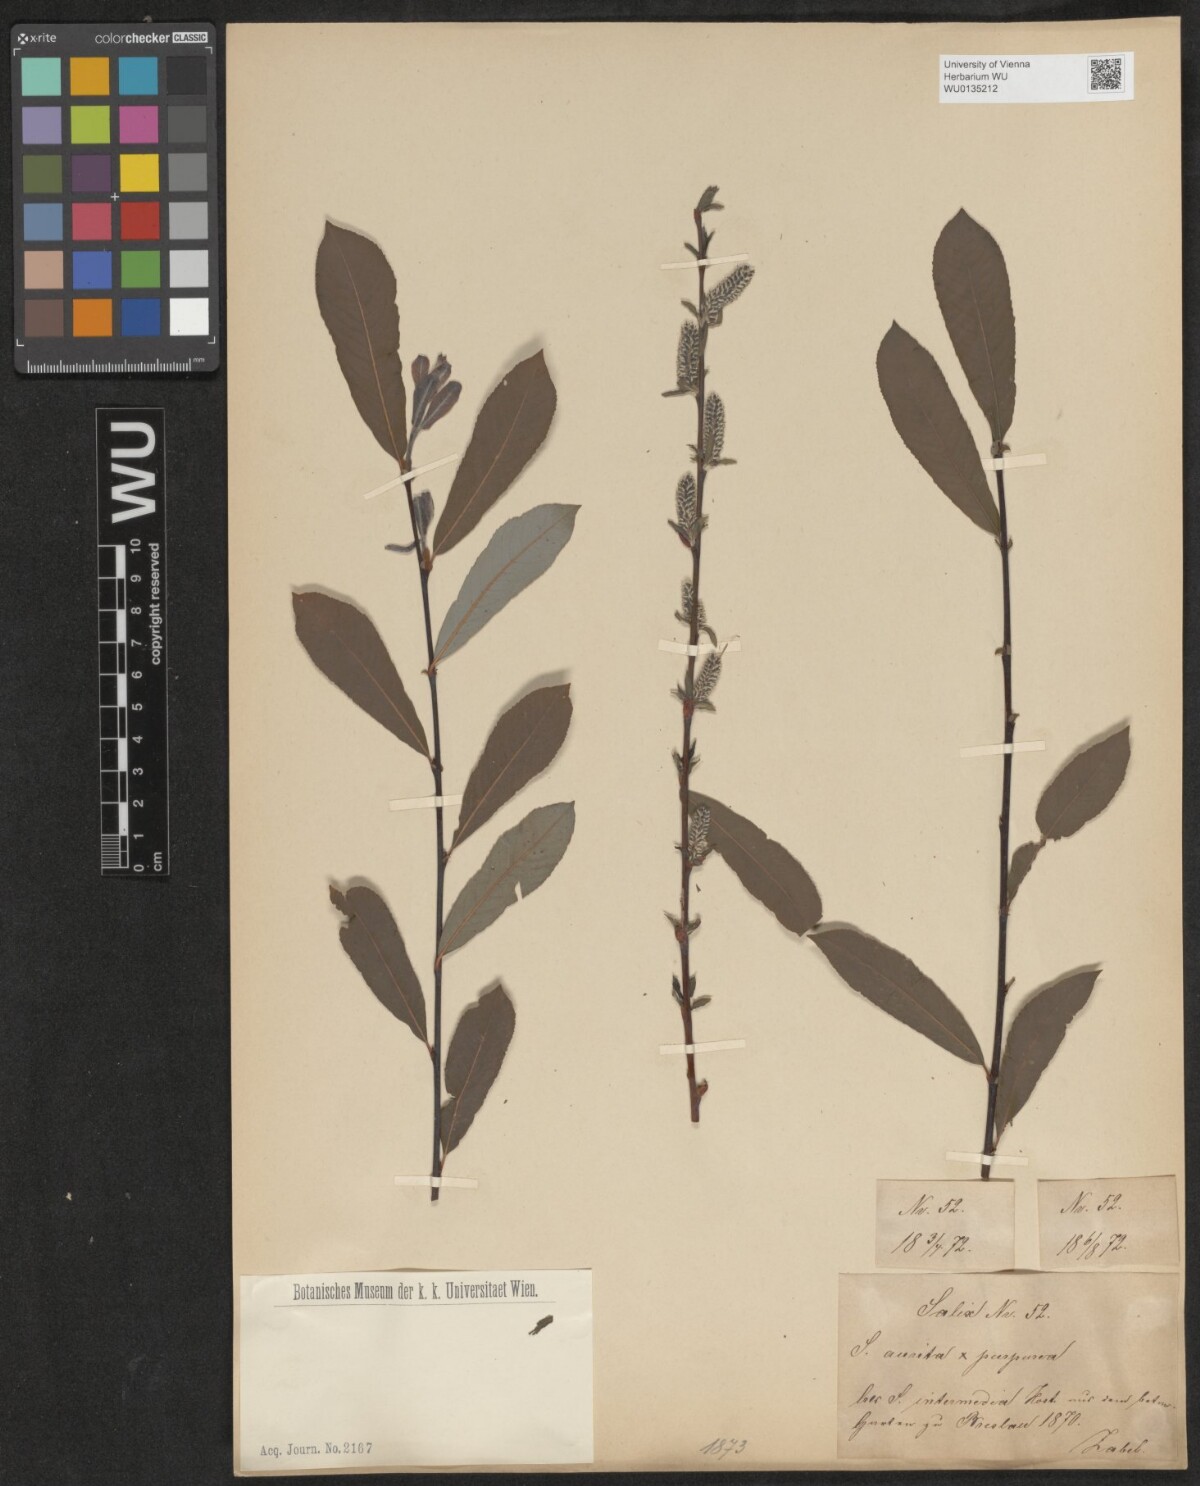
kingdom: Plantae
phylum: Tracheophyta
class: Magnoliopsida
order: Malpighiales
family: Salicaceae
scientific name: Salicaceae
